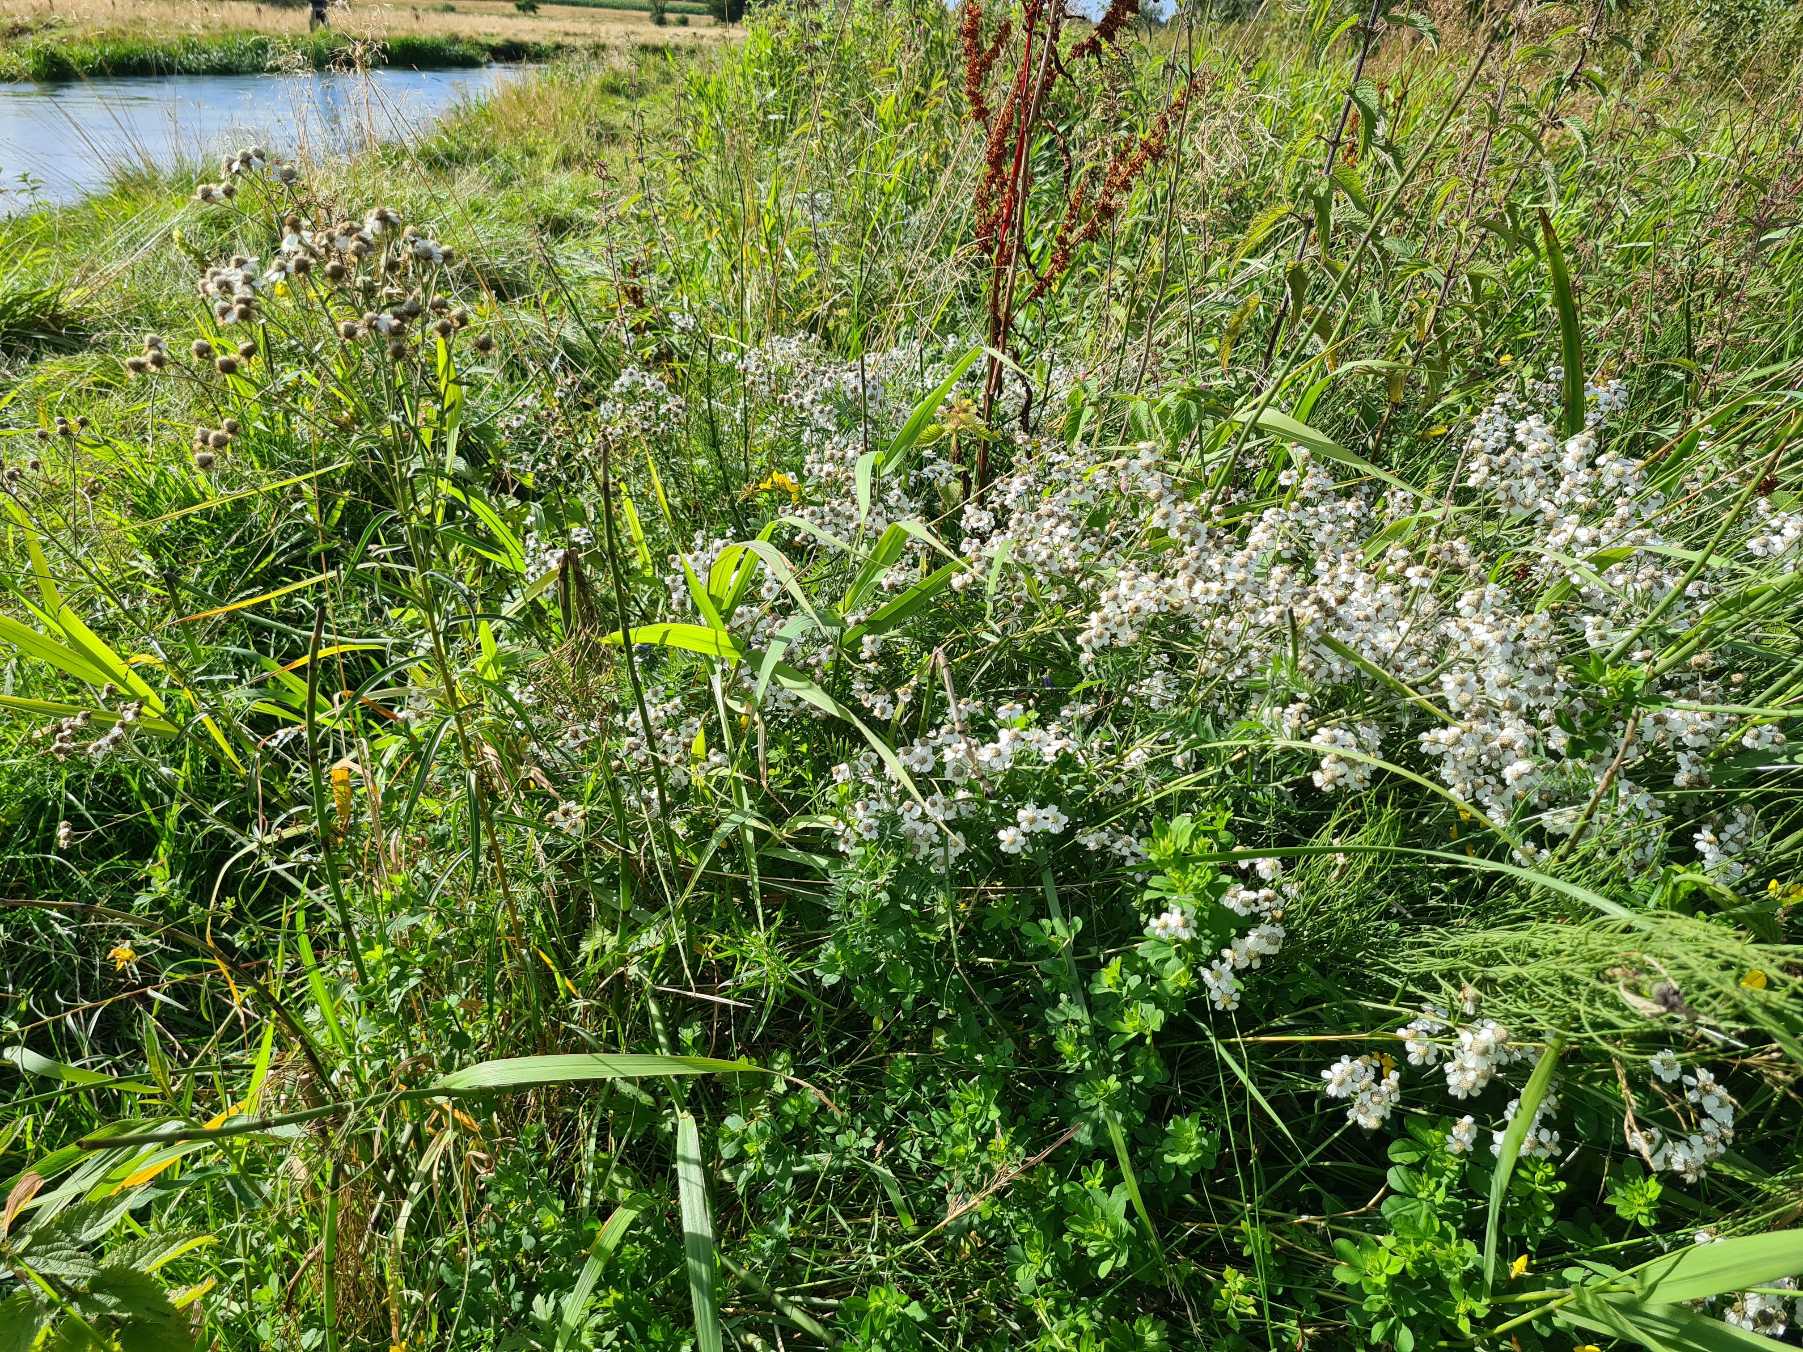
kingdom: Plantae
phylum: Tracheophyta
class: Magnoliopsida
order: Asterales
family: Asteraceae
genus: Achillea
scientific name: Achillea ptarmica
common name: Nyse-røllike
